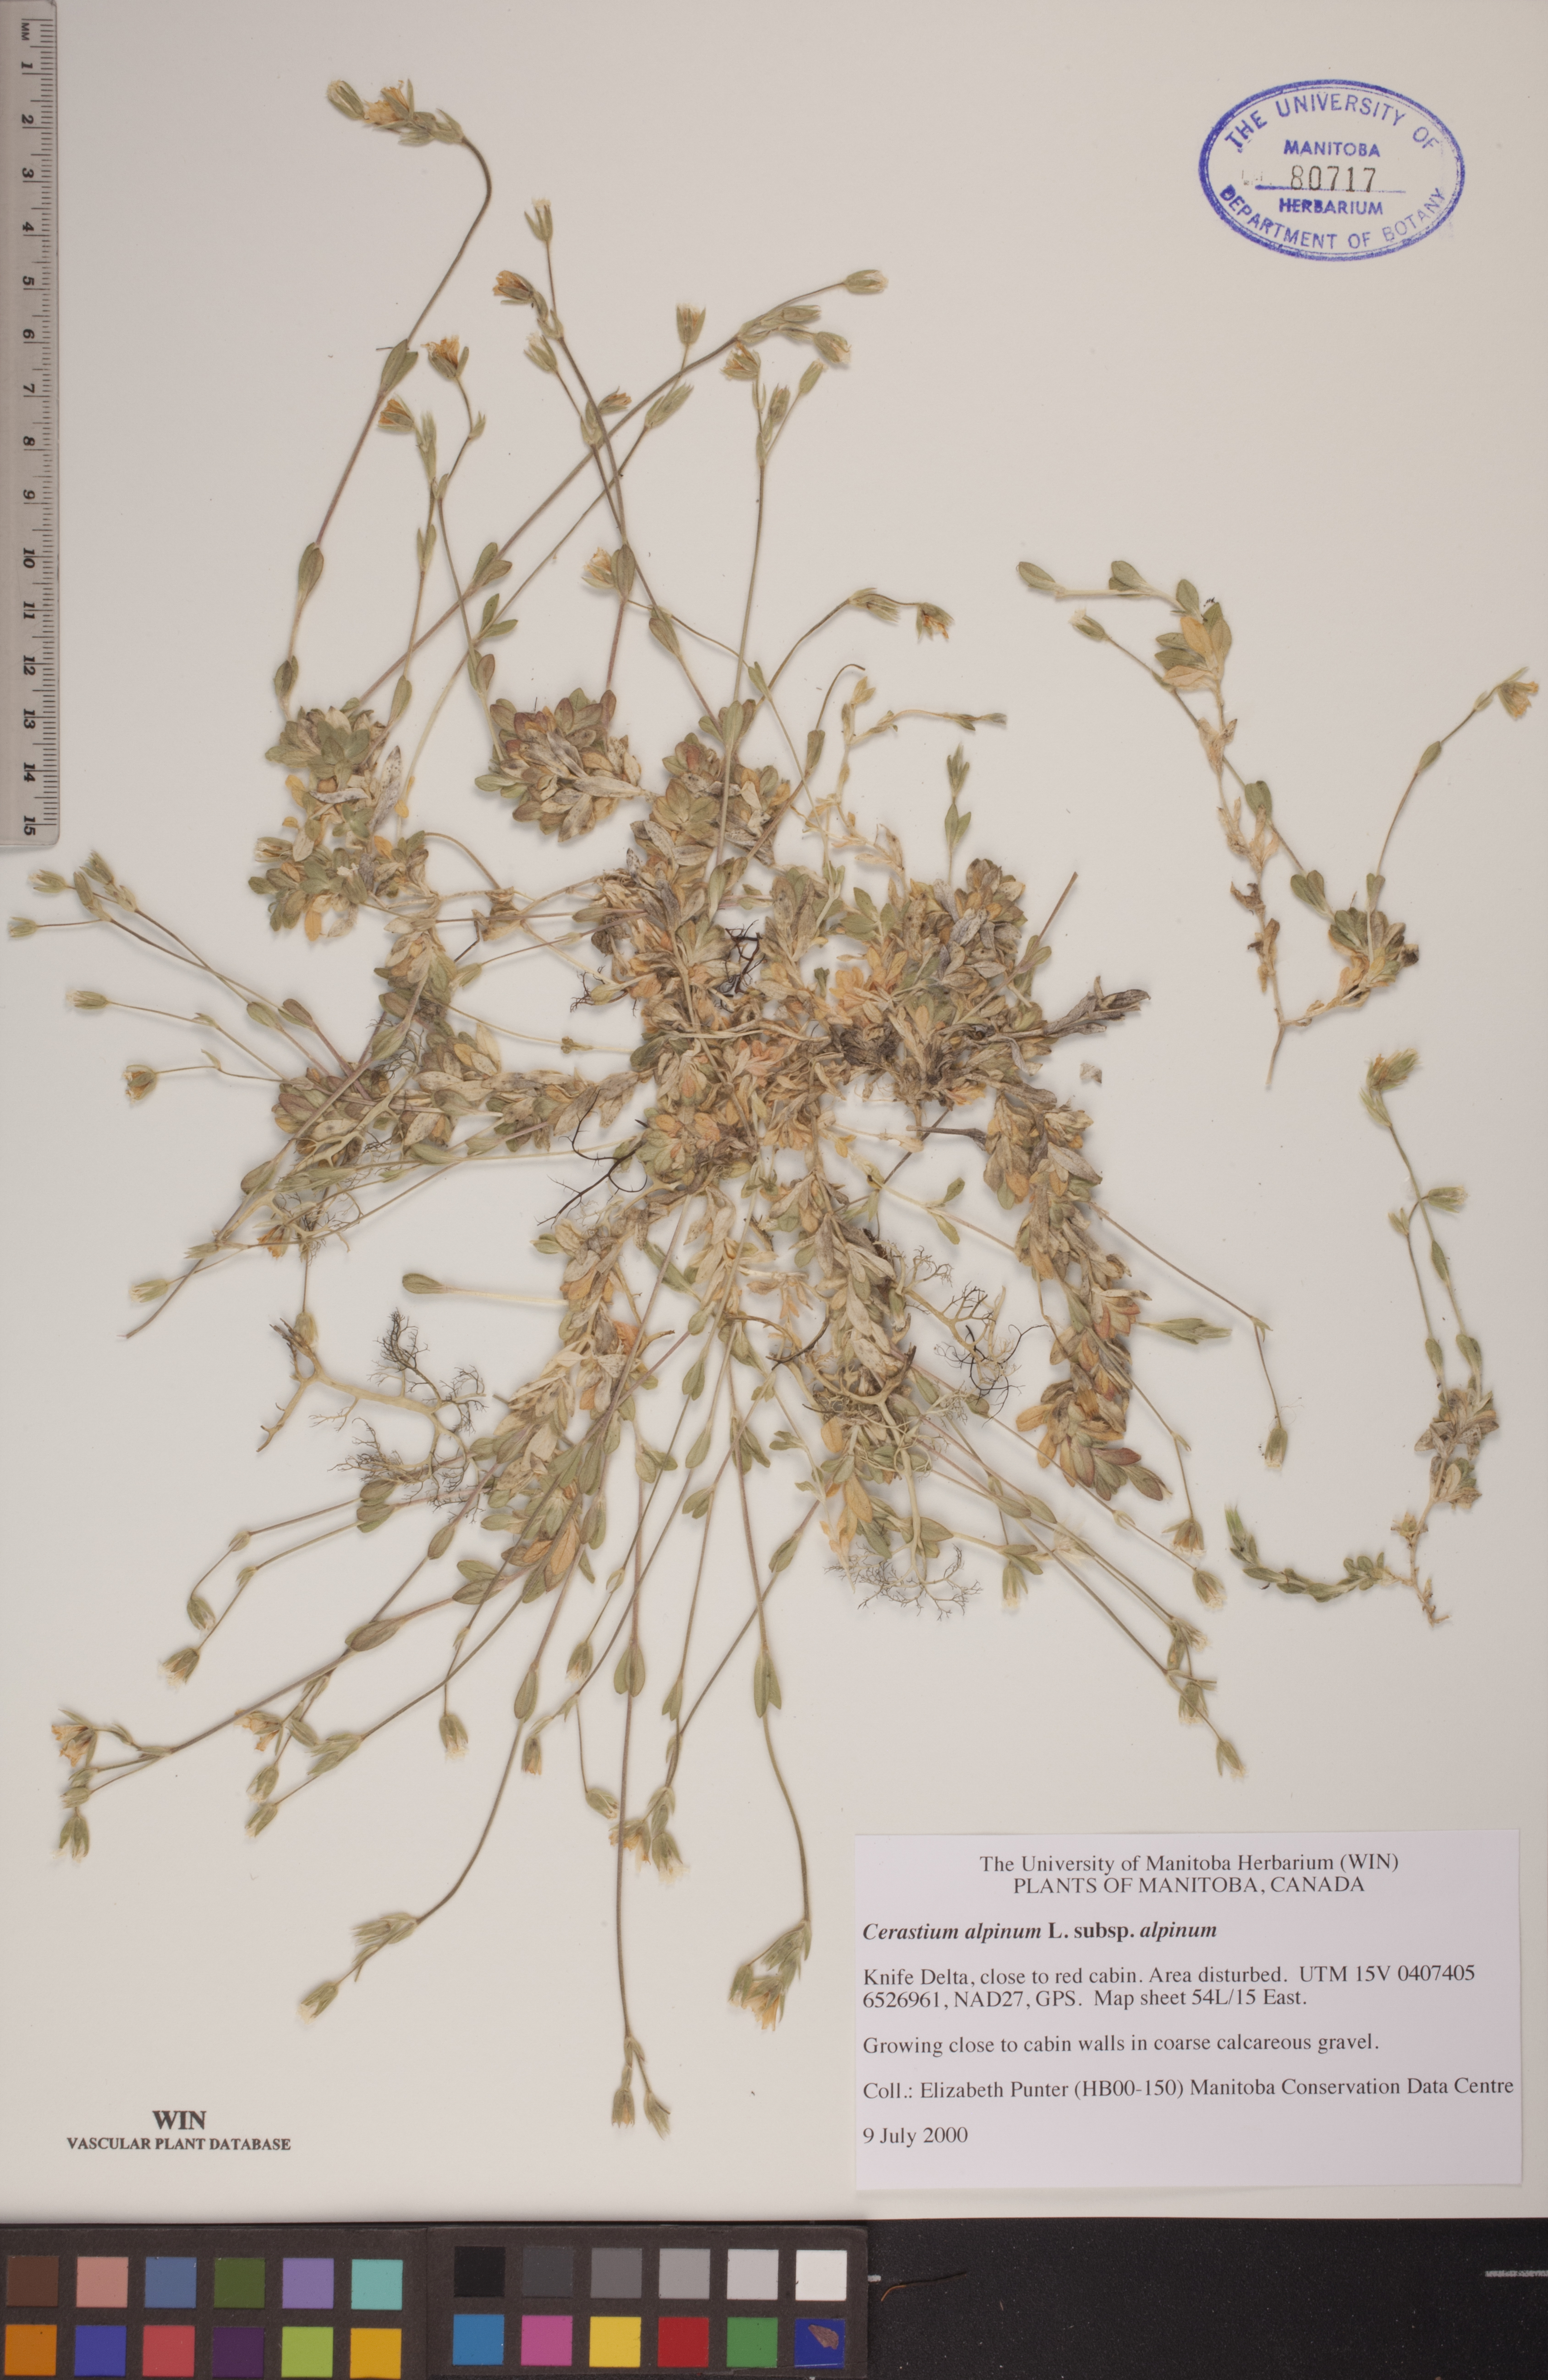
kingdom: Plantae
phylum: Tracheophyta
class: Magnoliopsida
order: Caryophyllales
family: Caryophyllaceae
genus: Cerastium
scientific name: Cerastium alpinum
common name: Alpine mouse-ear
